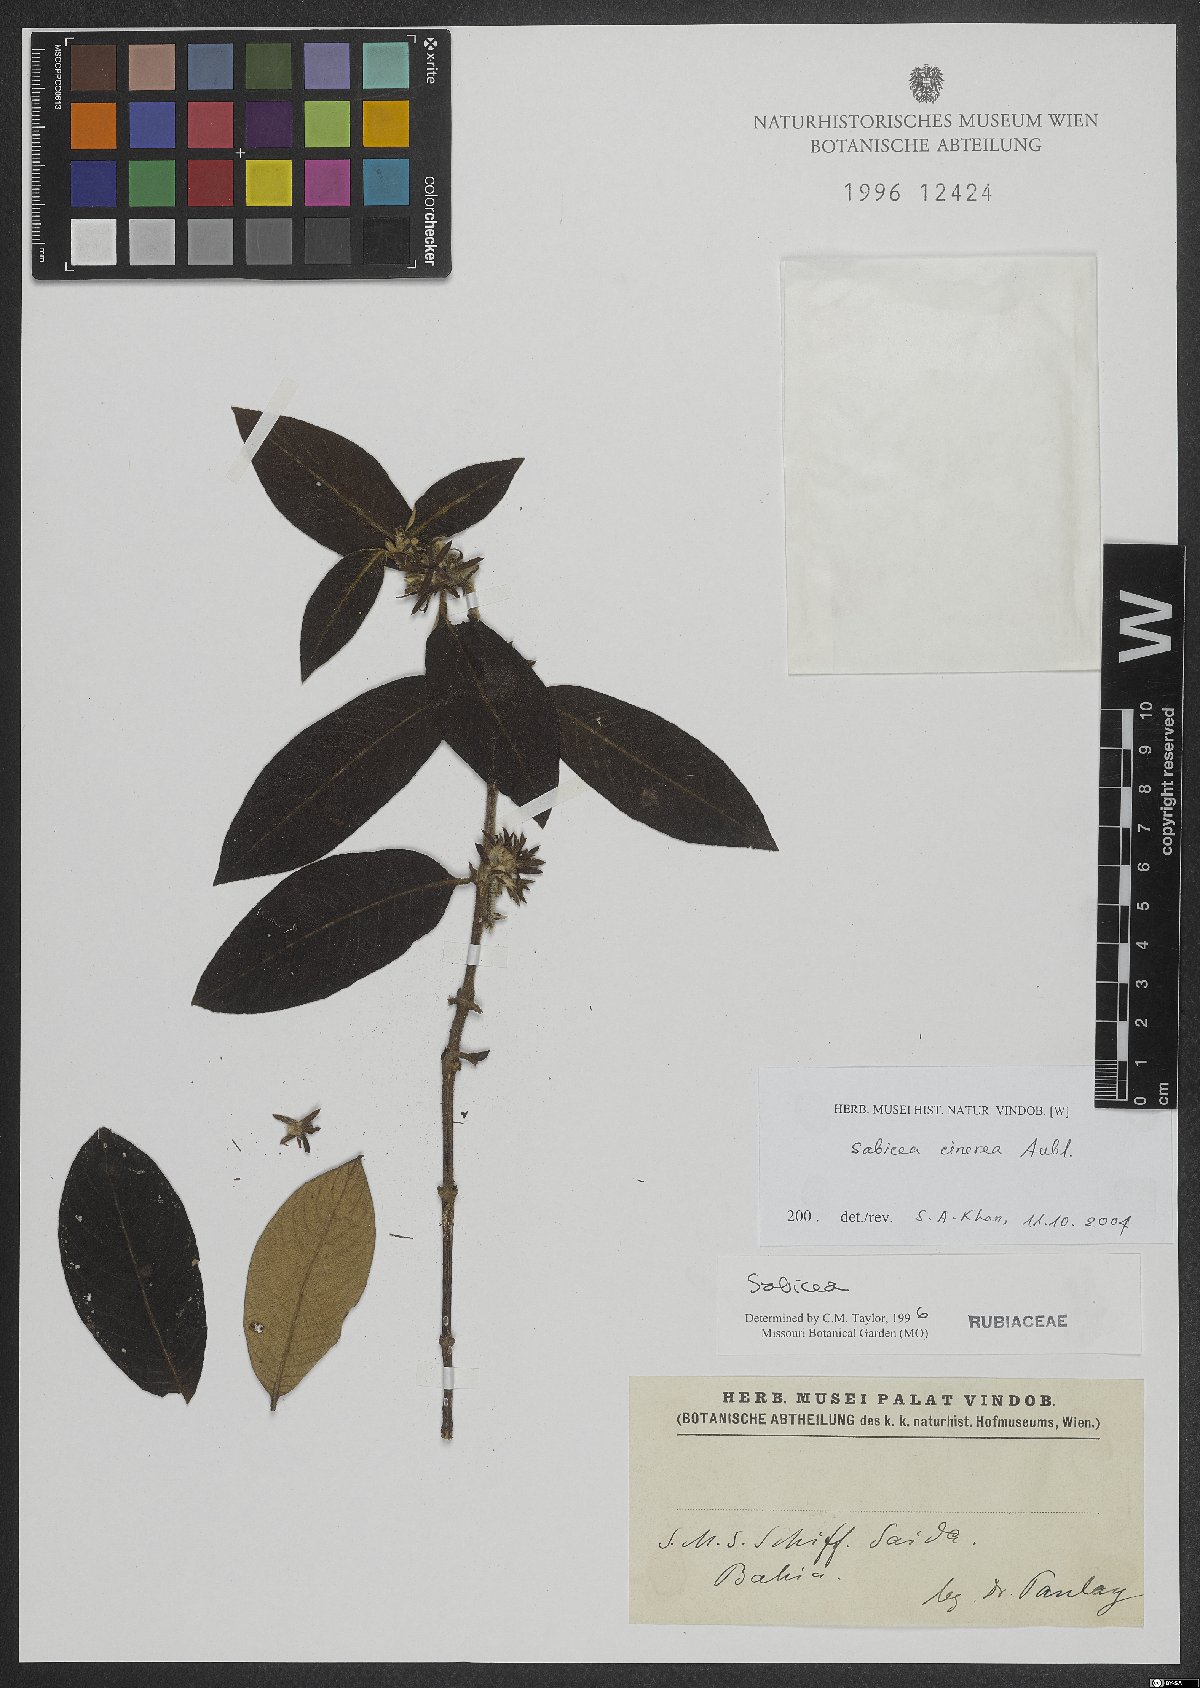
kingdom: Plantae
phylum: Tracheophyta
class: Magnoliopsida
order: Gentianales
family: Rubiaceae
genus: Sabicea
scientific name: Sabicea cinerea
